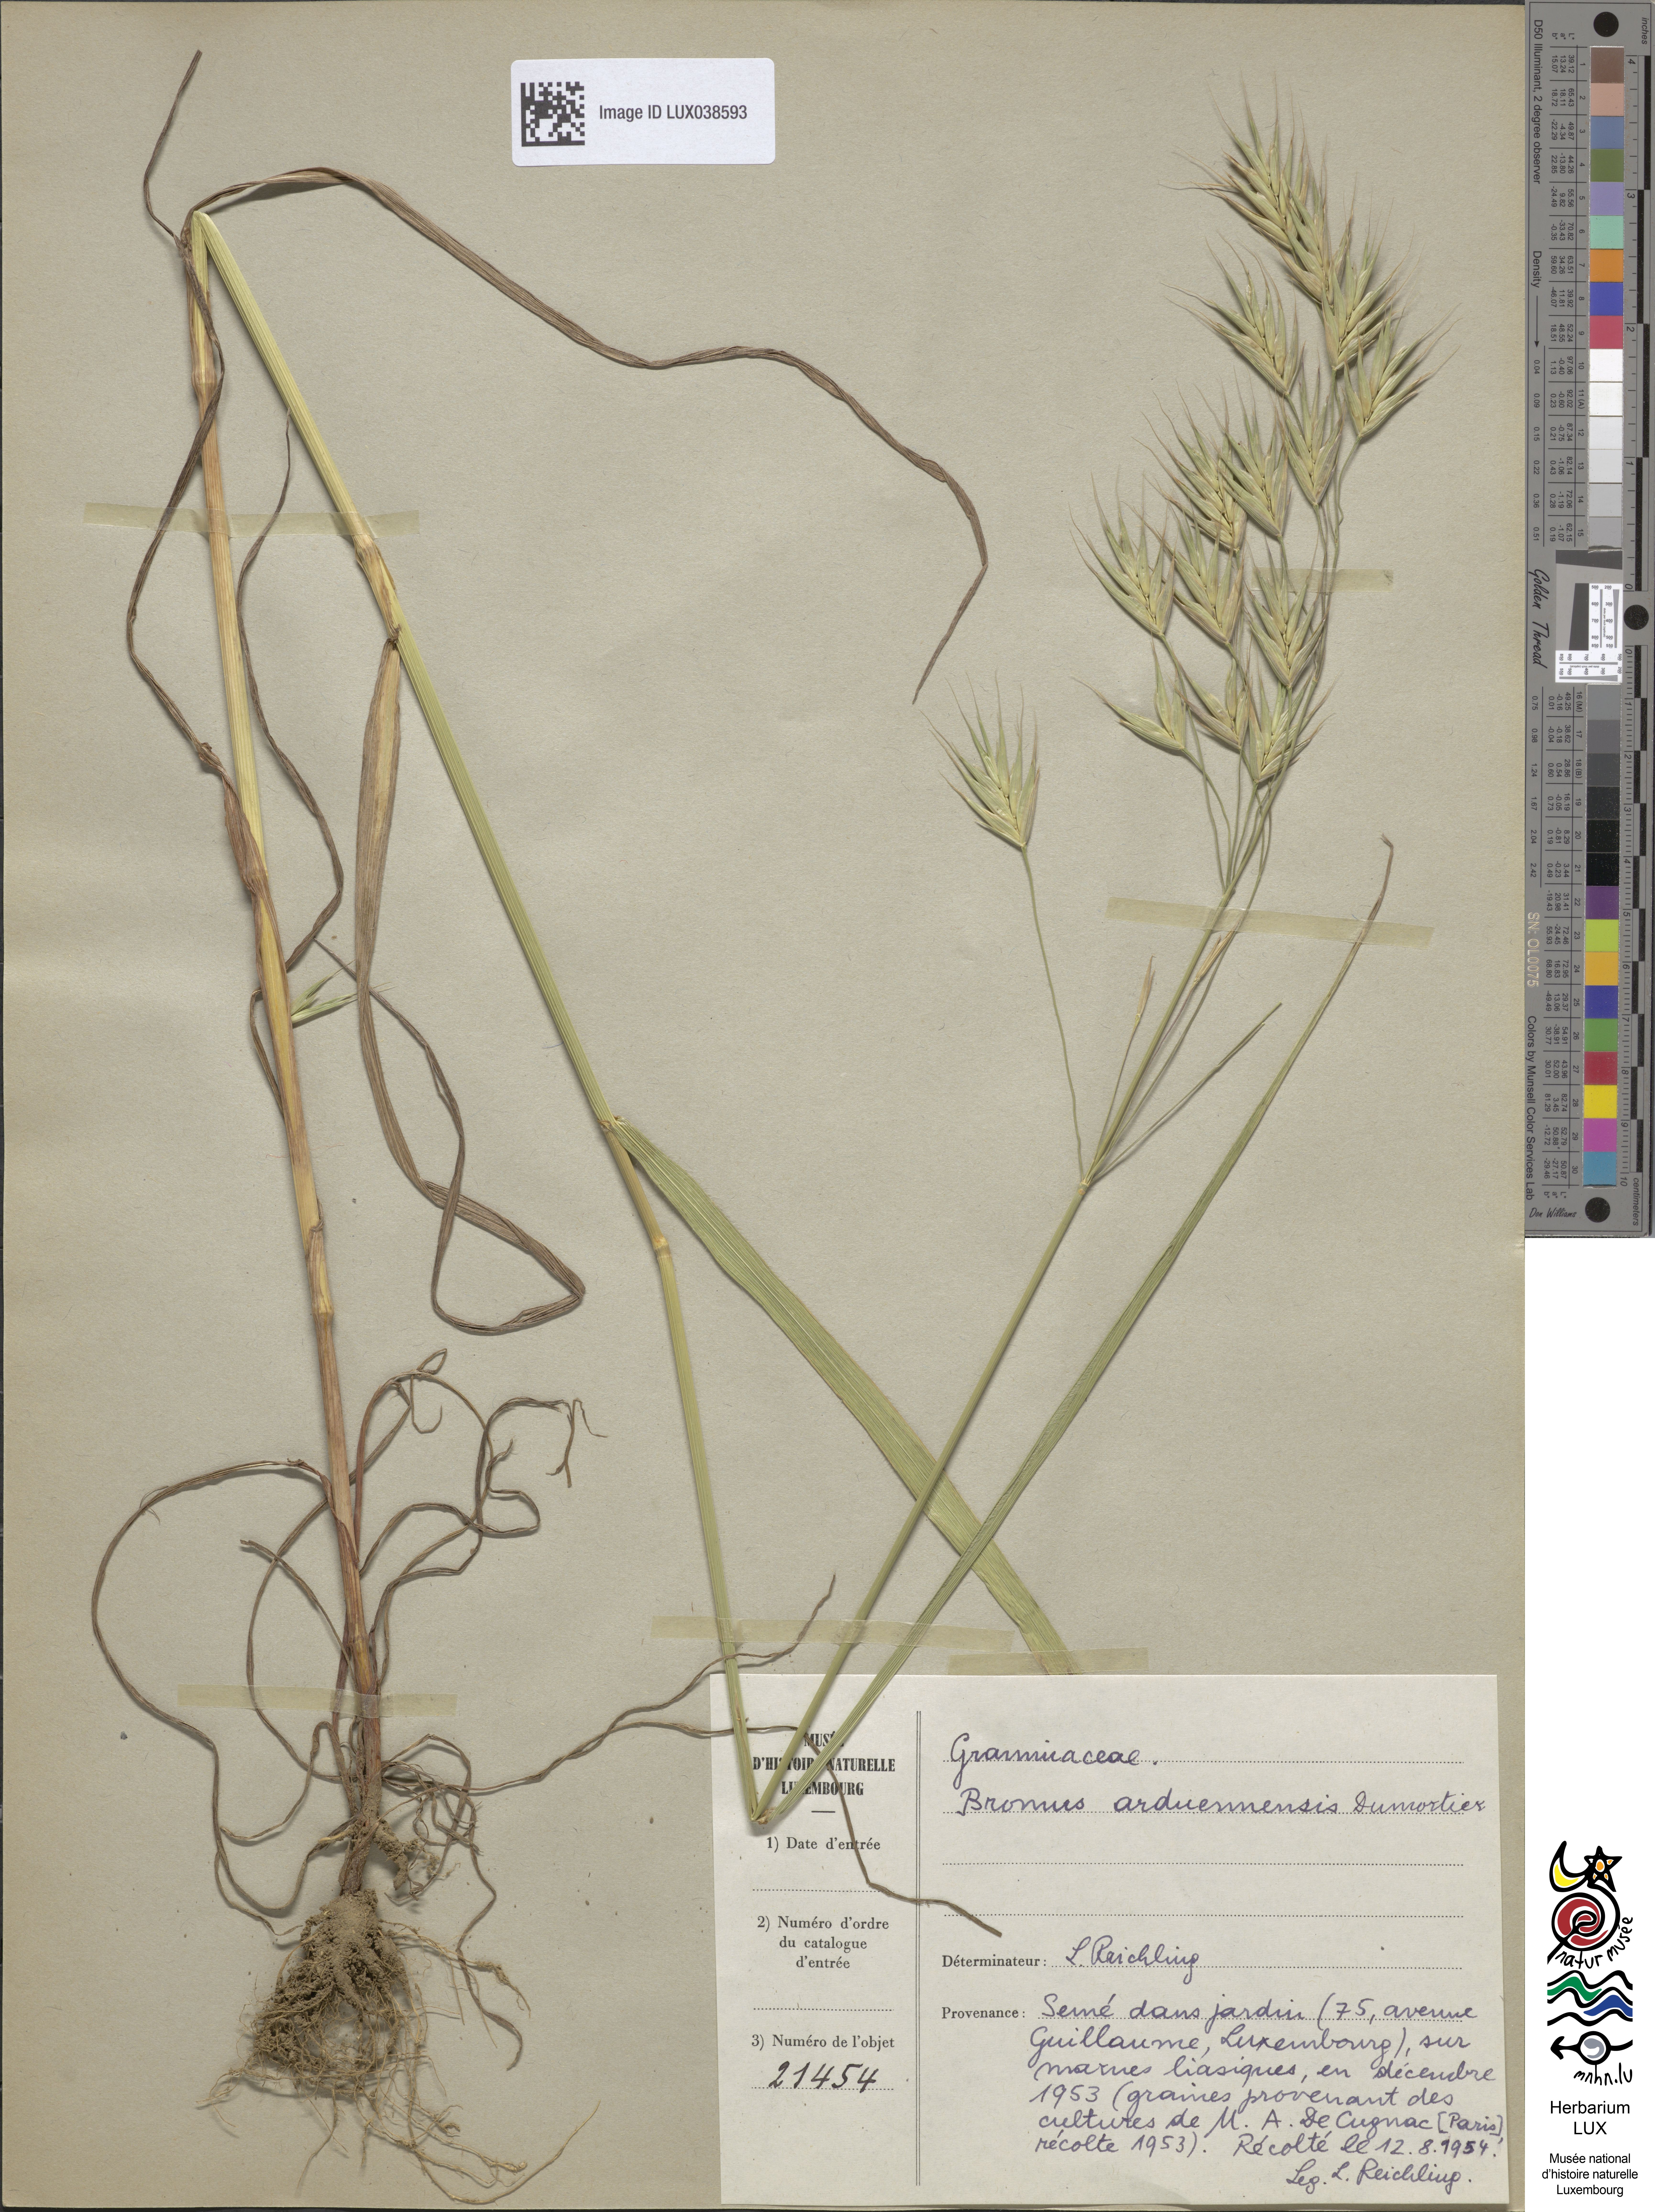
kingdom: Plantae
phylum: Tracheophyta
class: Liliopsida
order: Poales
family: Poaceae
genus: Bromus
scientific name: Bromus bromoideus
